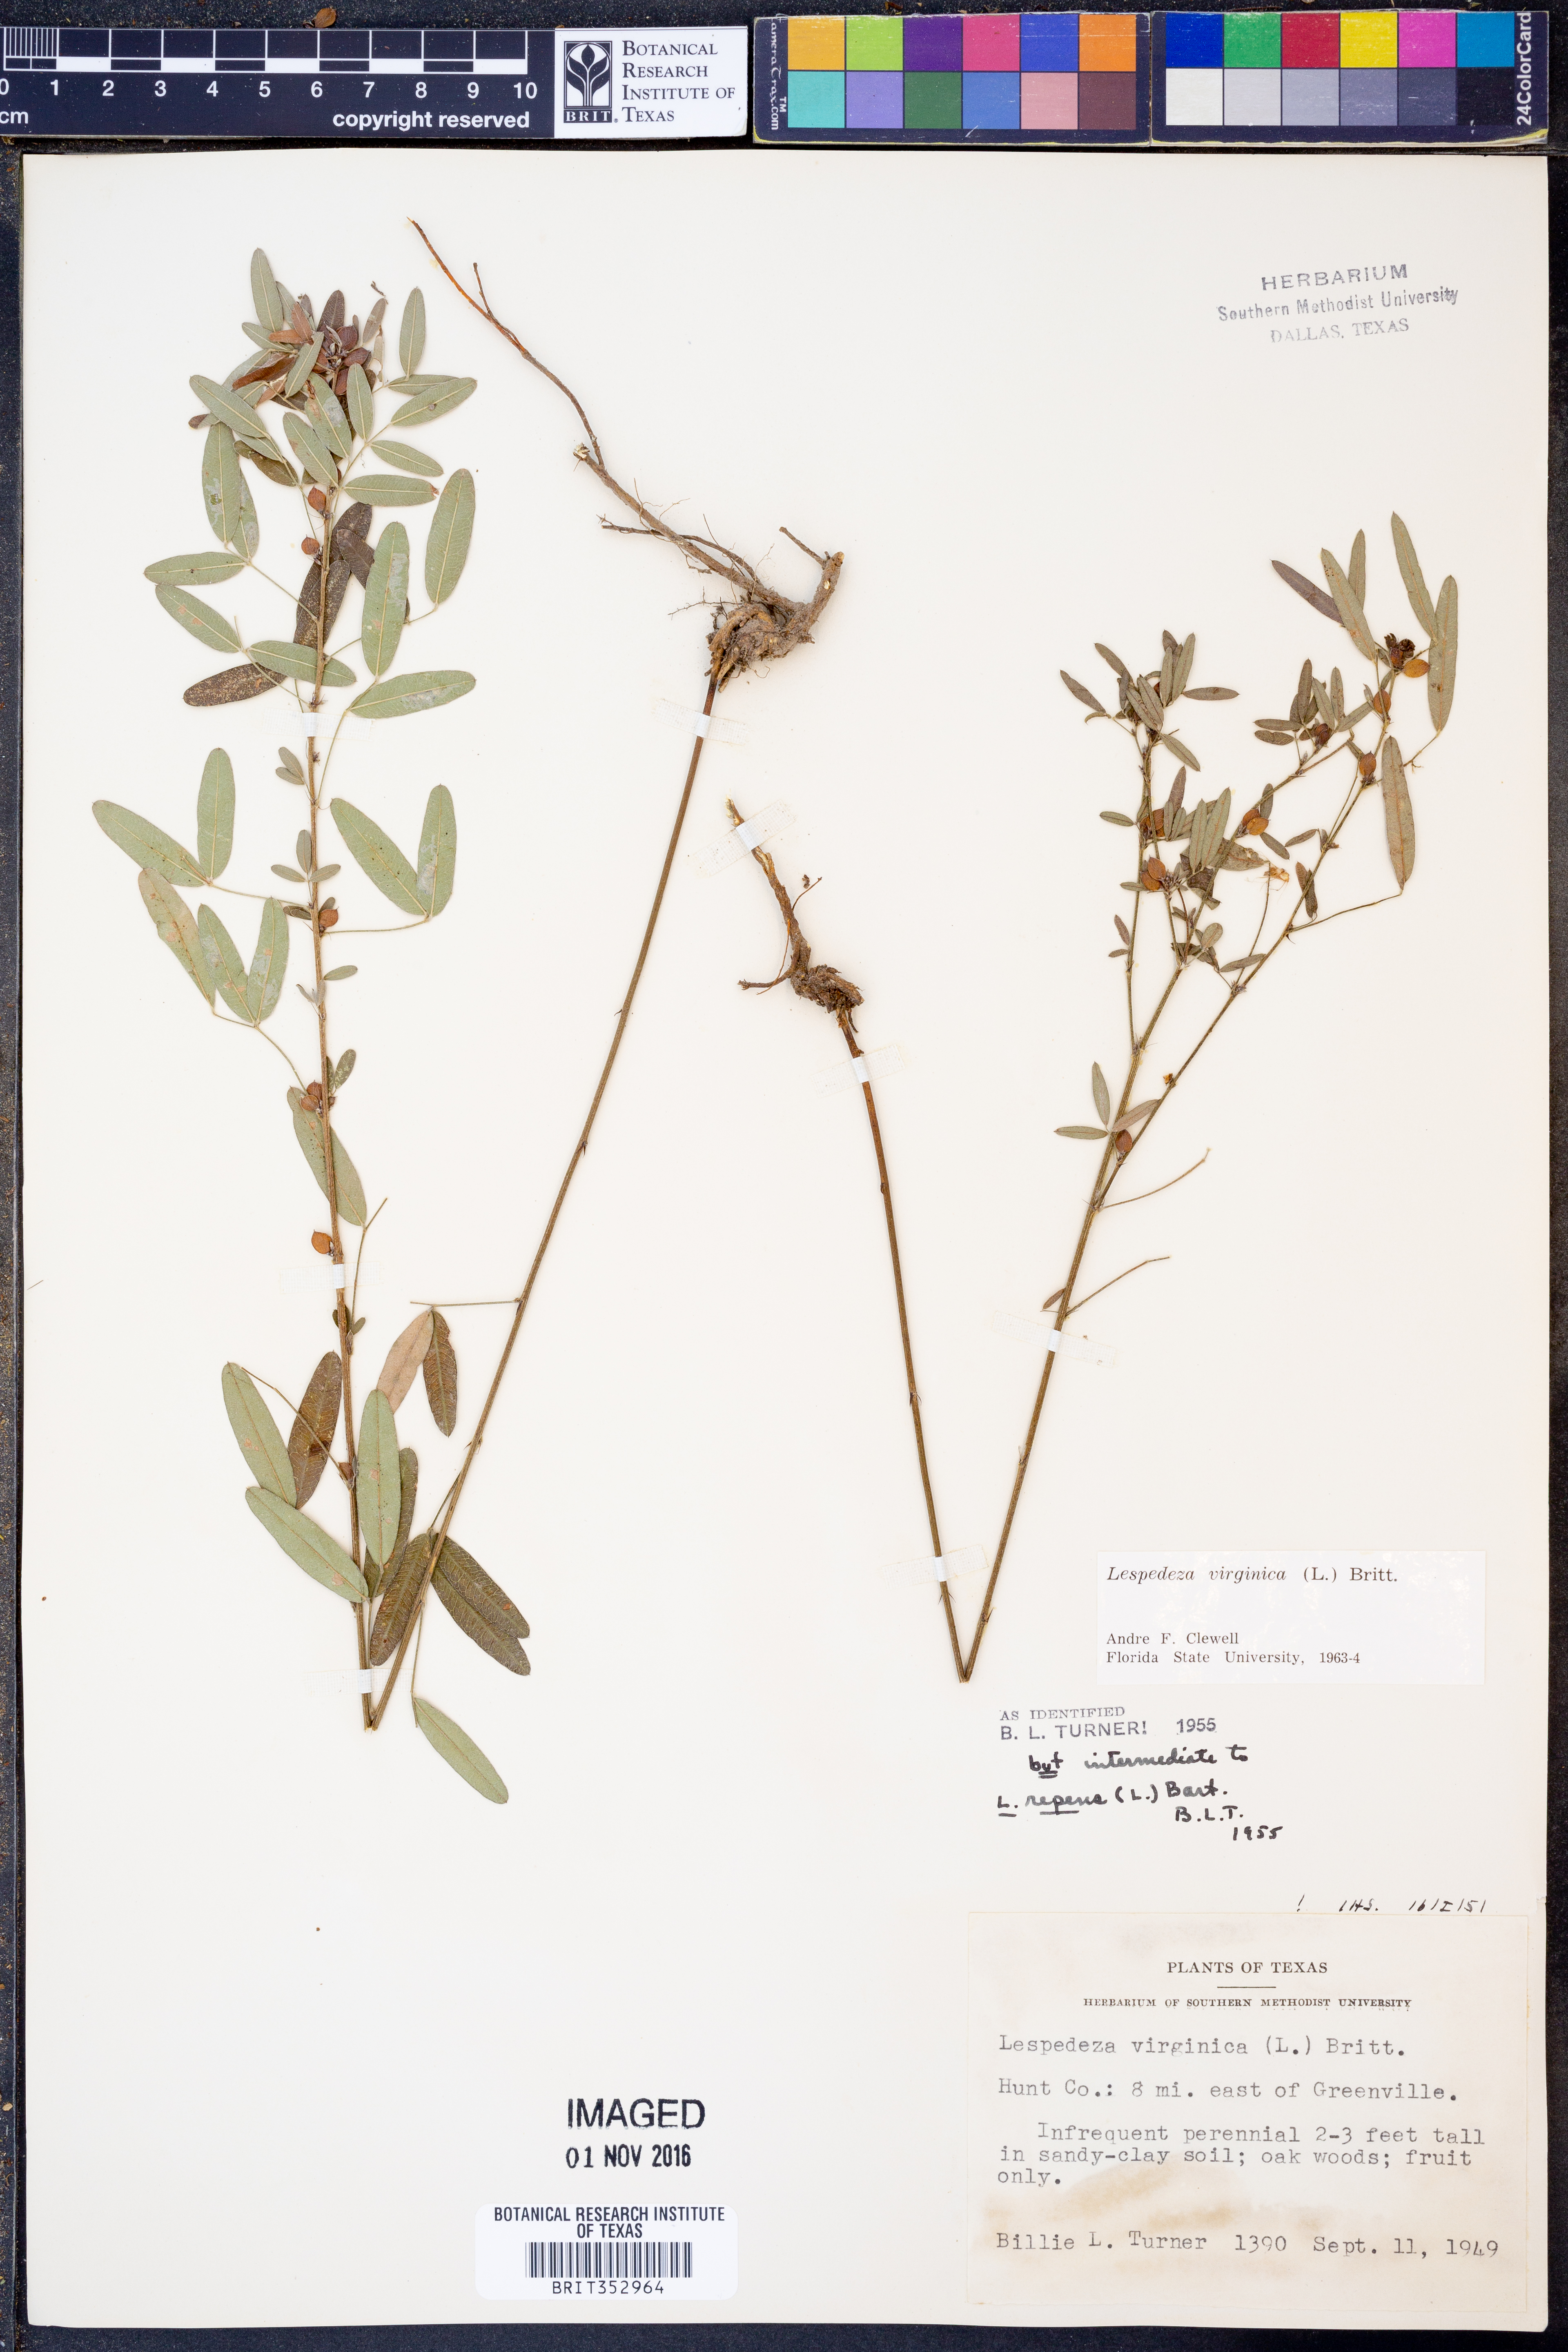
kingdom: Plantae
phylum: Tracheophyta
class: Magnoliopsida
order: Fabales
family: Fabaceae
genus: Lespedeza
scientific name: Lespedeza virginica
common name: Slender bush-clover
